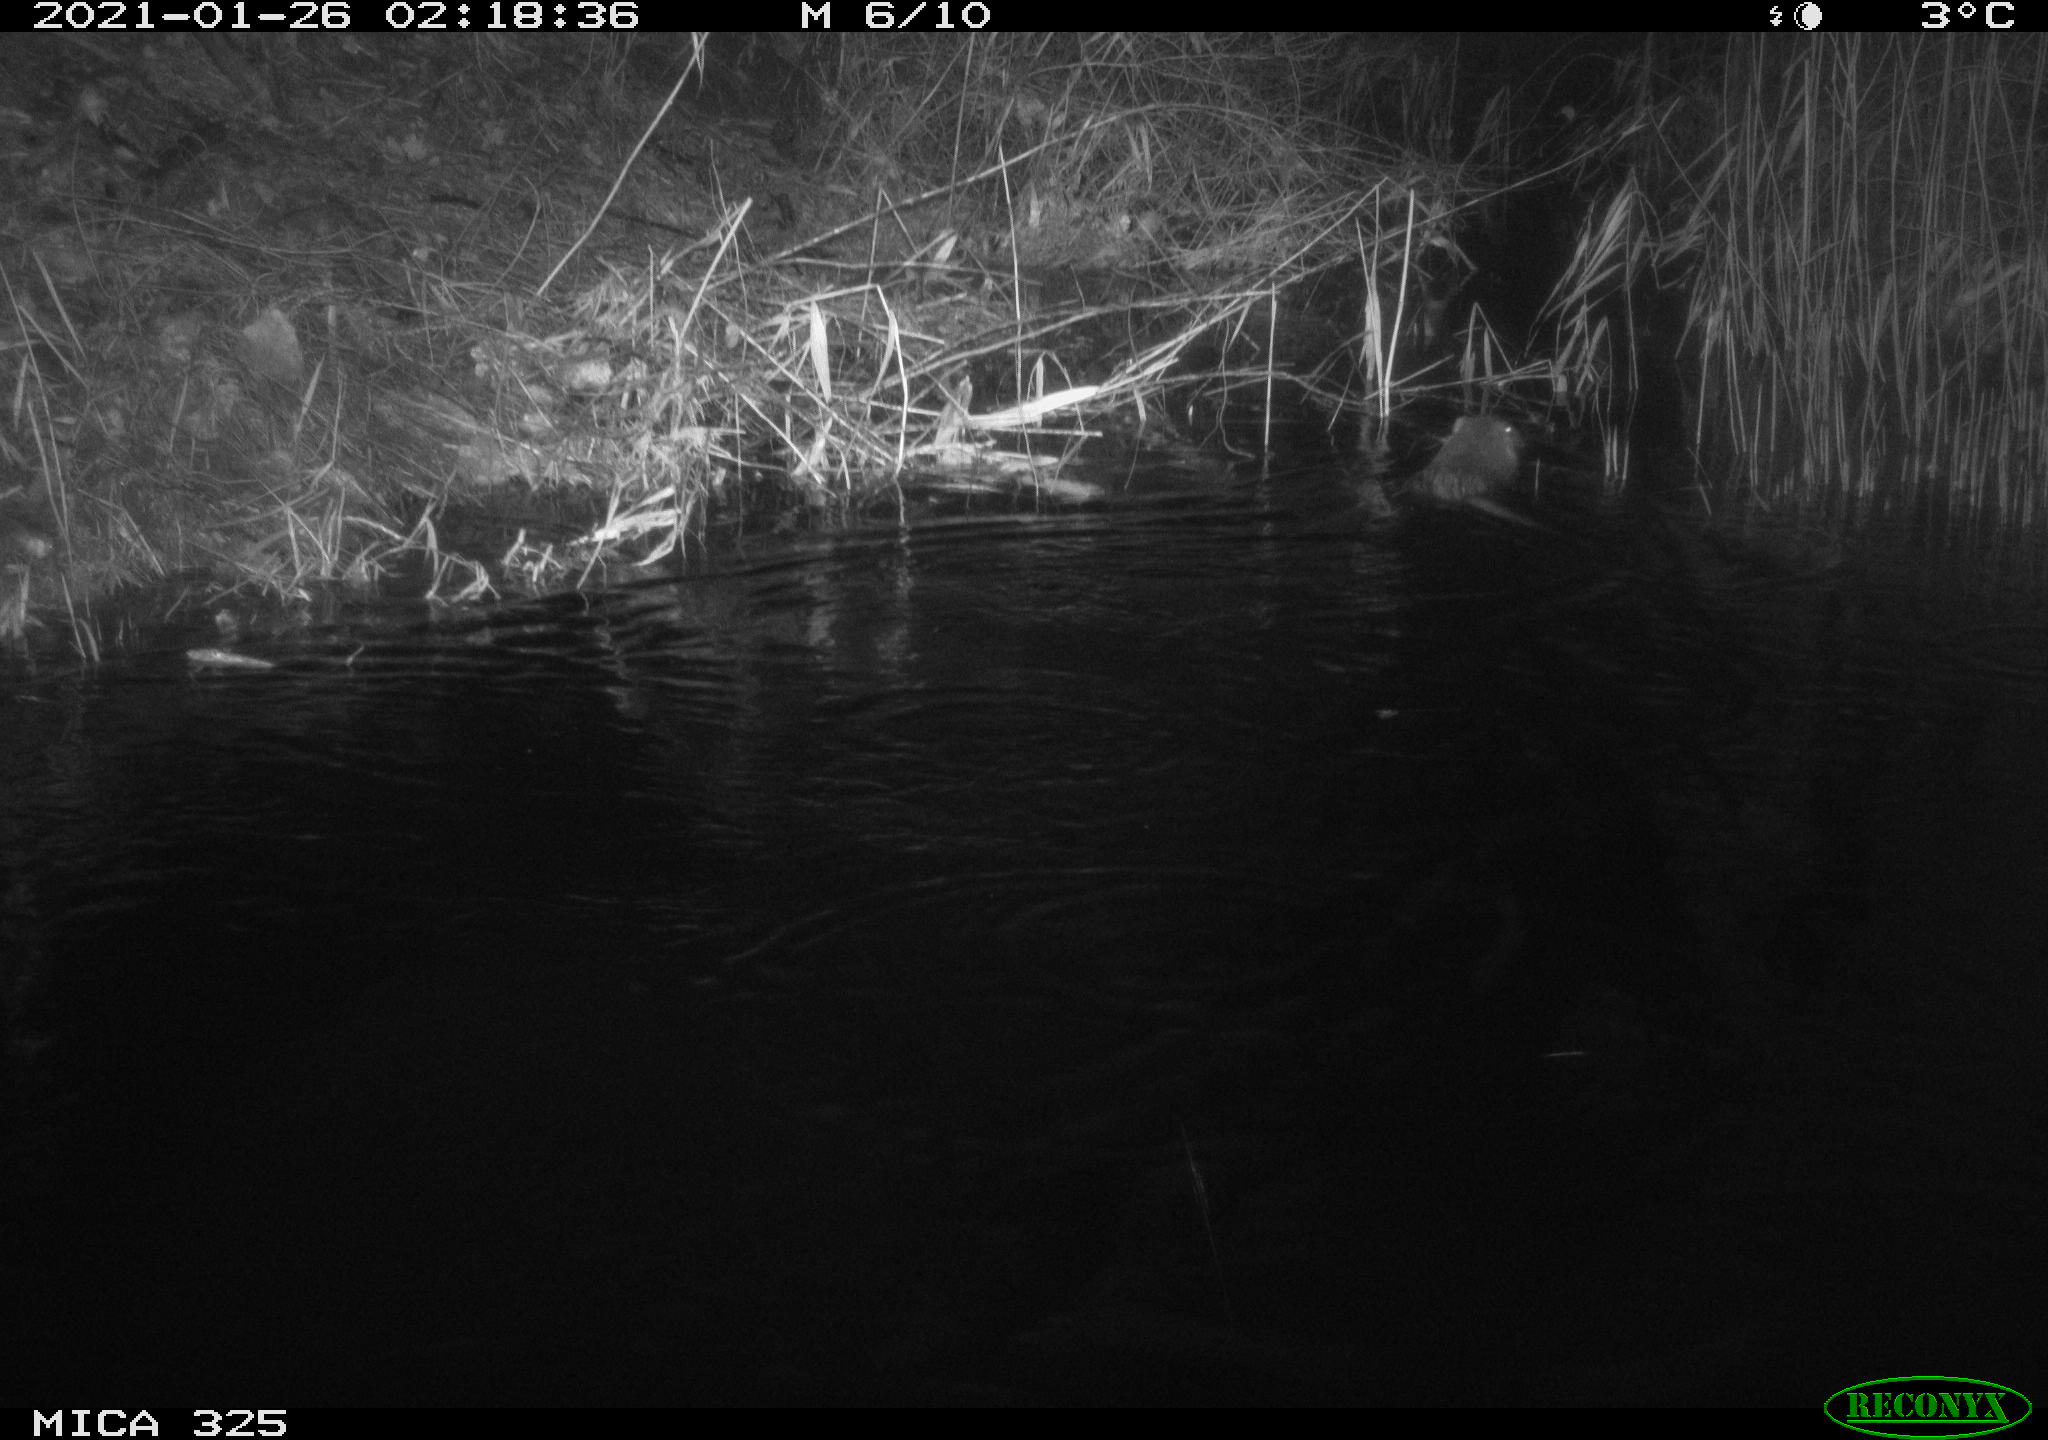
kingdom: Animalia
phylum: Chordata
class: Mammalia
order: Rodentia
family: Myocastoridae
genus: Myocastor
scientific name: Myocastor coypus
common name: Coypu
